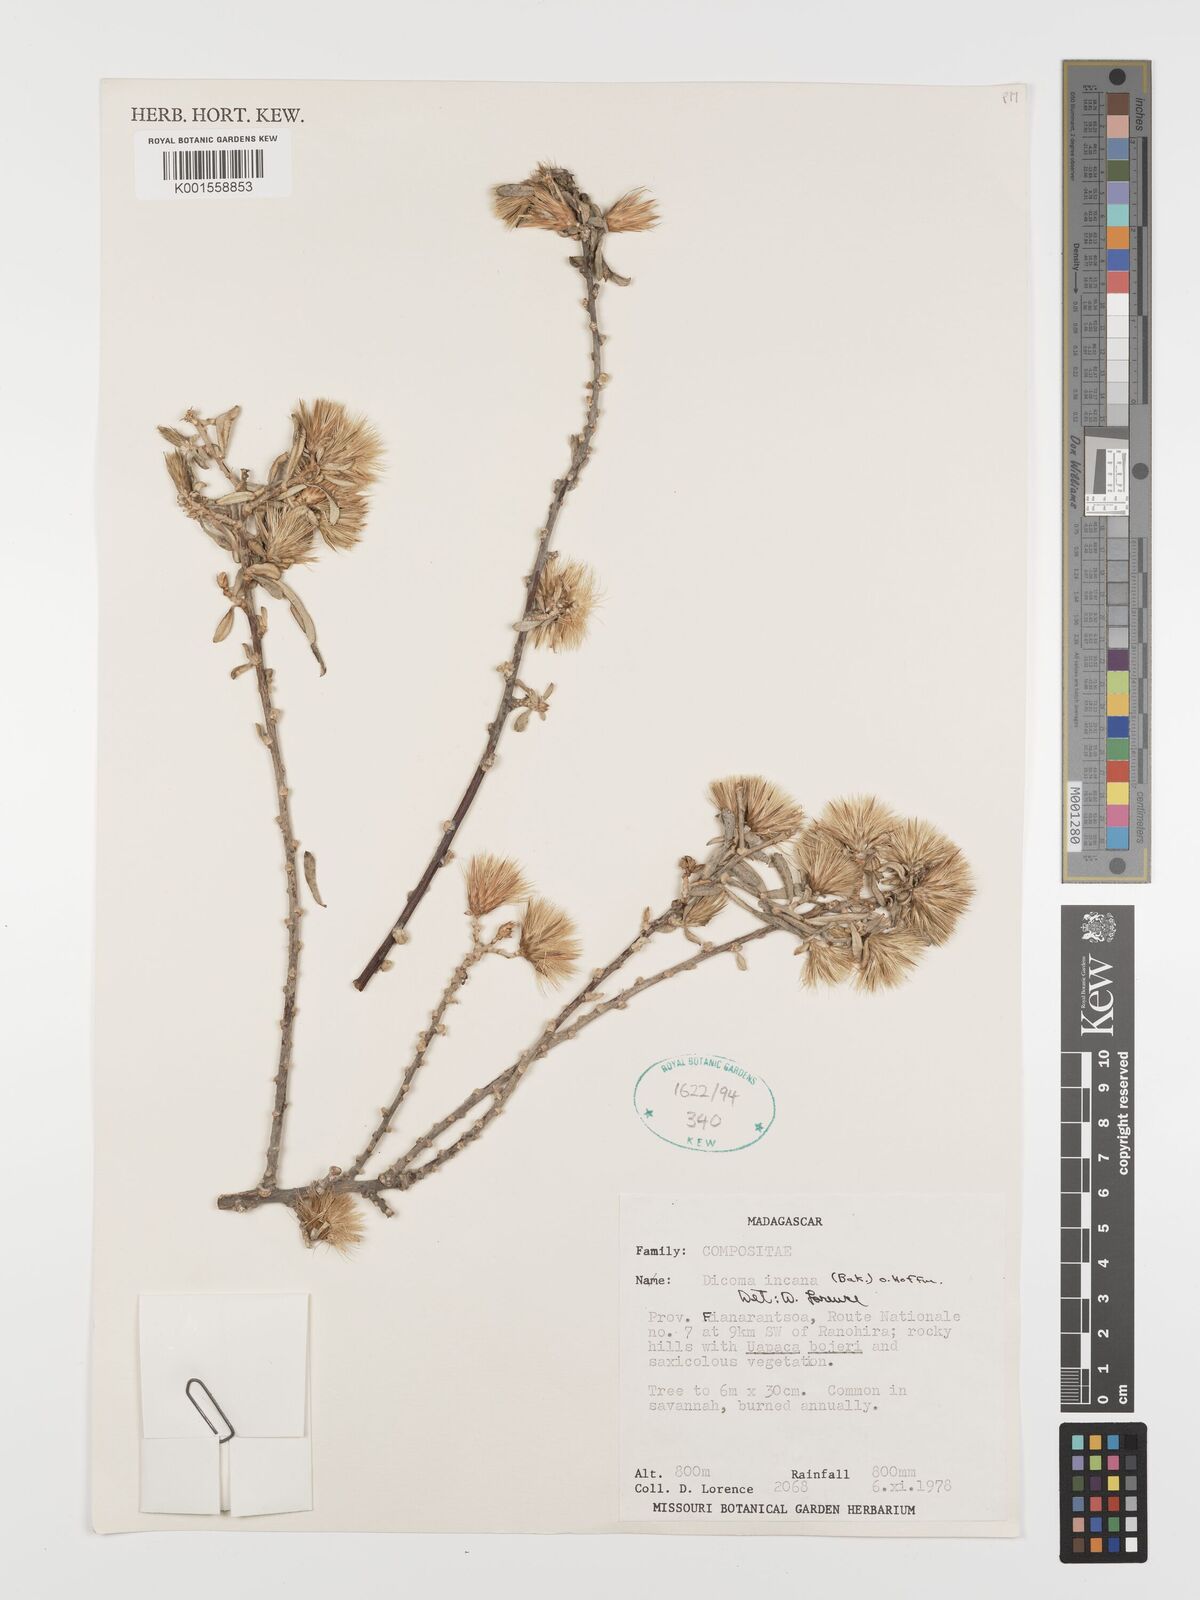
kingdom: Plantae
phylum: Tracheophyta
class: Magnoliopsida
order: Asterales
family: Asteraceae
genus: Dicoma
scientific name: Dicoma incana
